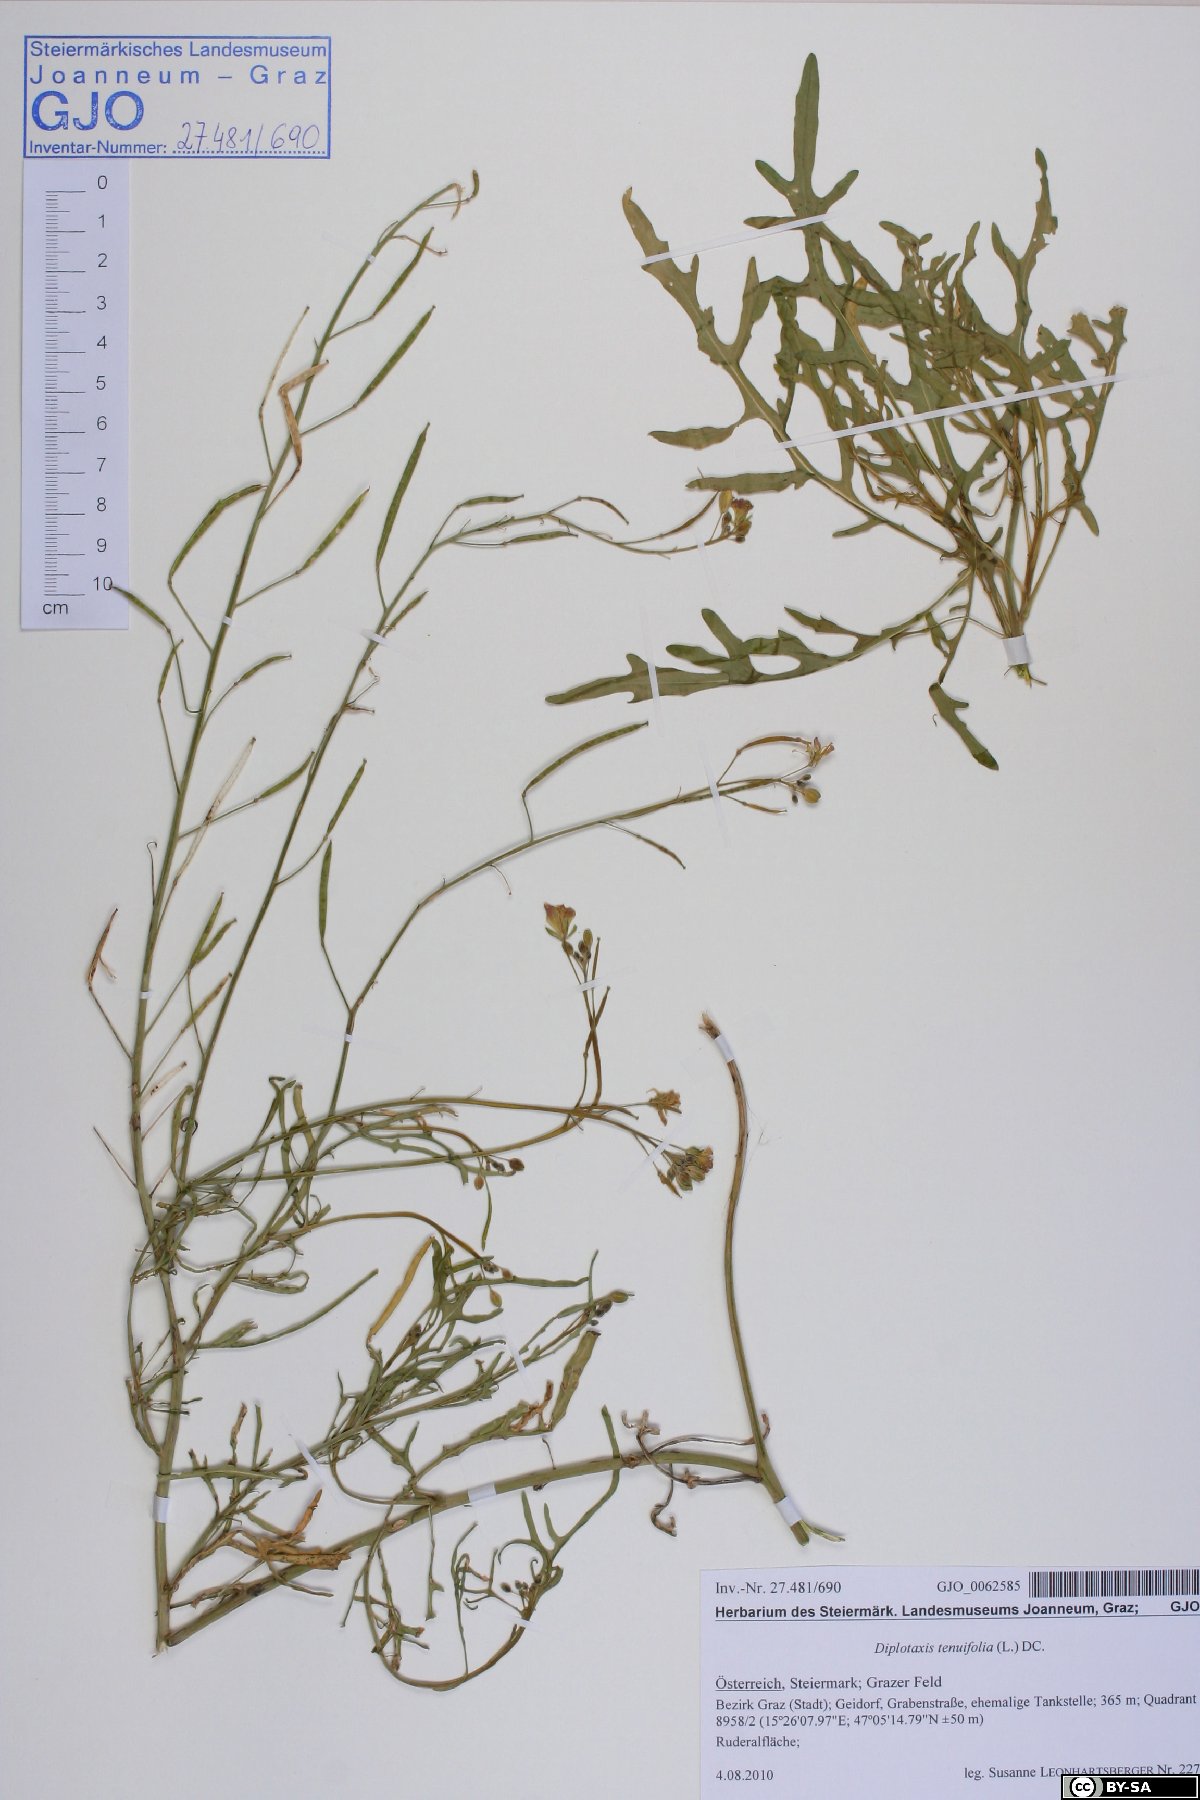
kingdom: Plantae
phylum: Tracheophyta
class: Magnoliopsida
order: Brassicales
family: Brassicaceae
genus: Diplotaxis
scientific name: Diplotaxis tenuifolia
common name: Perennial wall-rocket
